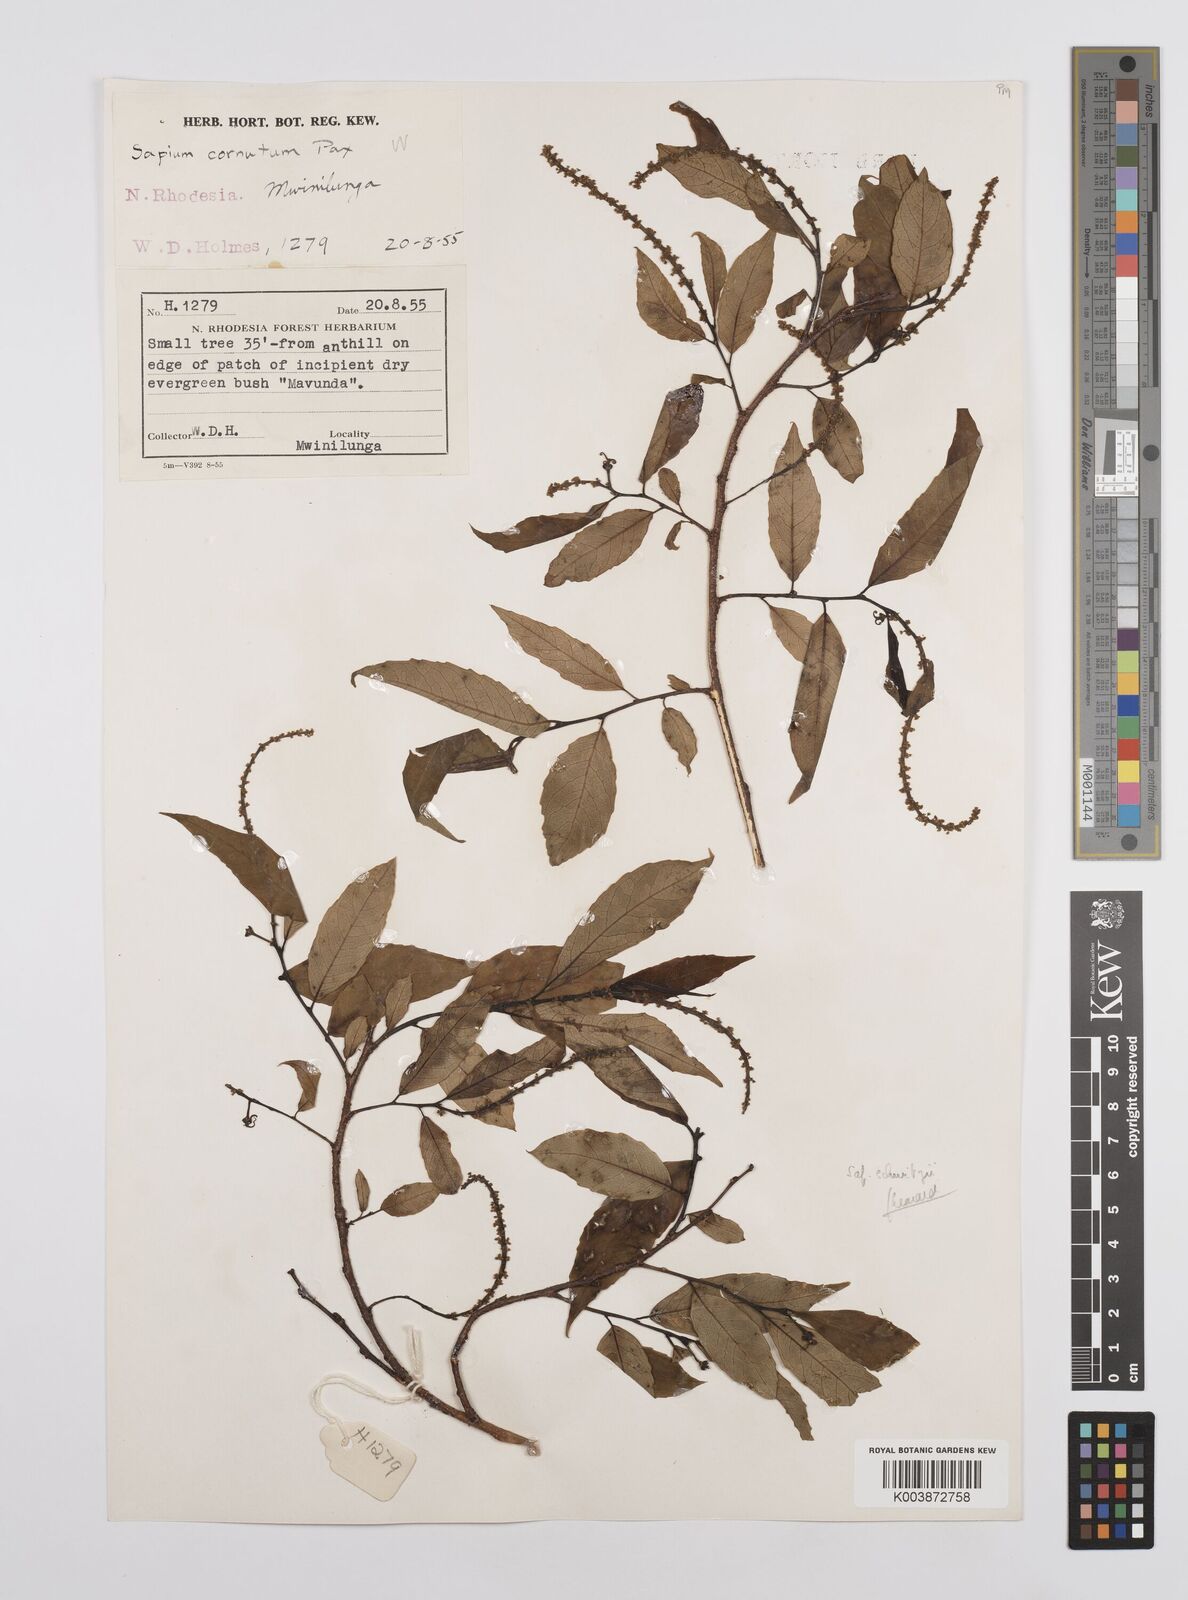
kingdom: Plantae
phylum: Tracheophyta
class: Magnoliopsida
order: Malpighiales
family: Euphorbiaceae
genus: Sclerocroton
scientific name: Sclerocroton schmitzii
